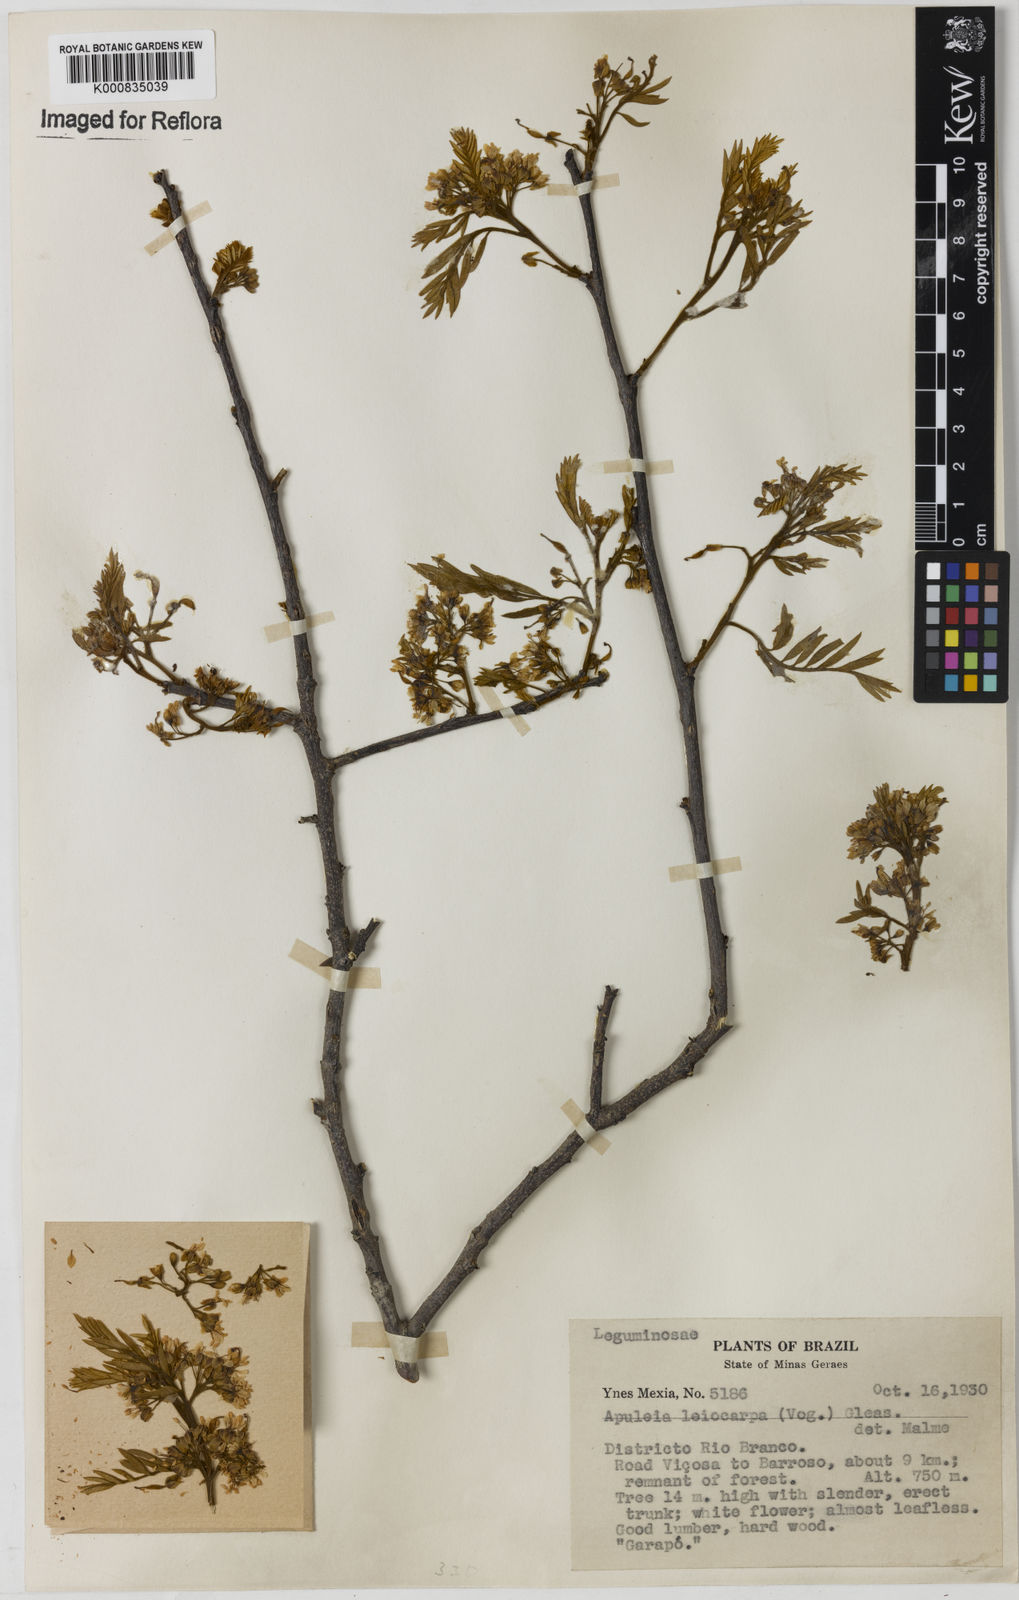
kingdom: Plantae
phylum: Tracheophyta
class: Magnoliopsida
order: Fabales
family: Fabaceae
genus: Apuleia
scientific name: Apuleia leiocarpa
